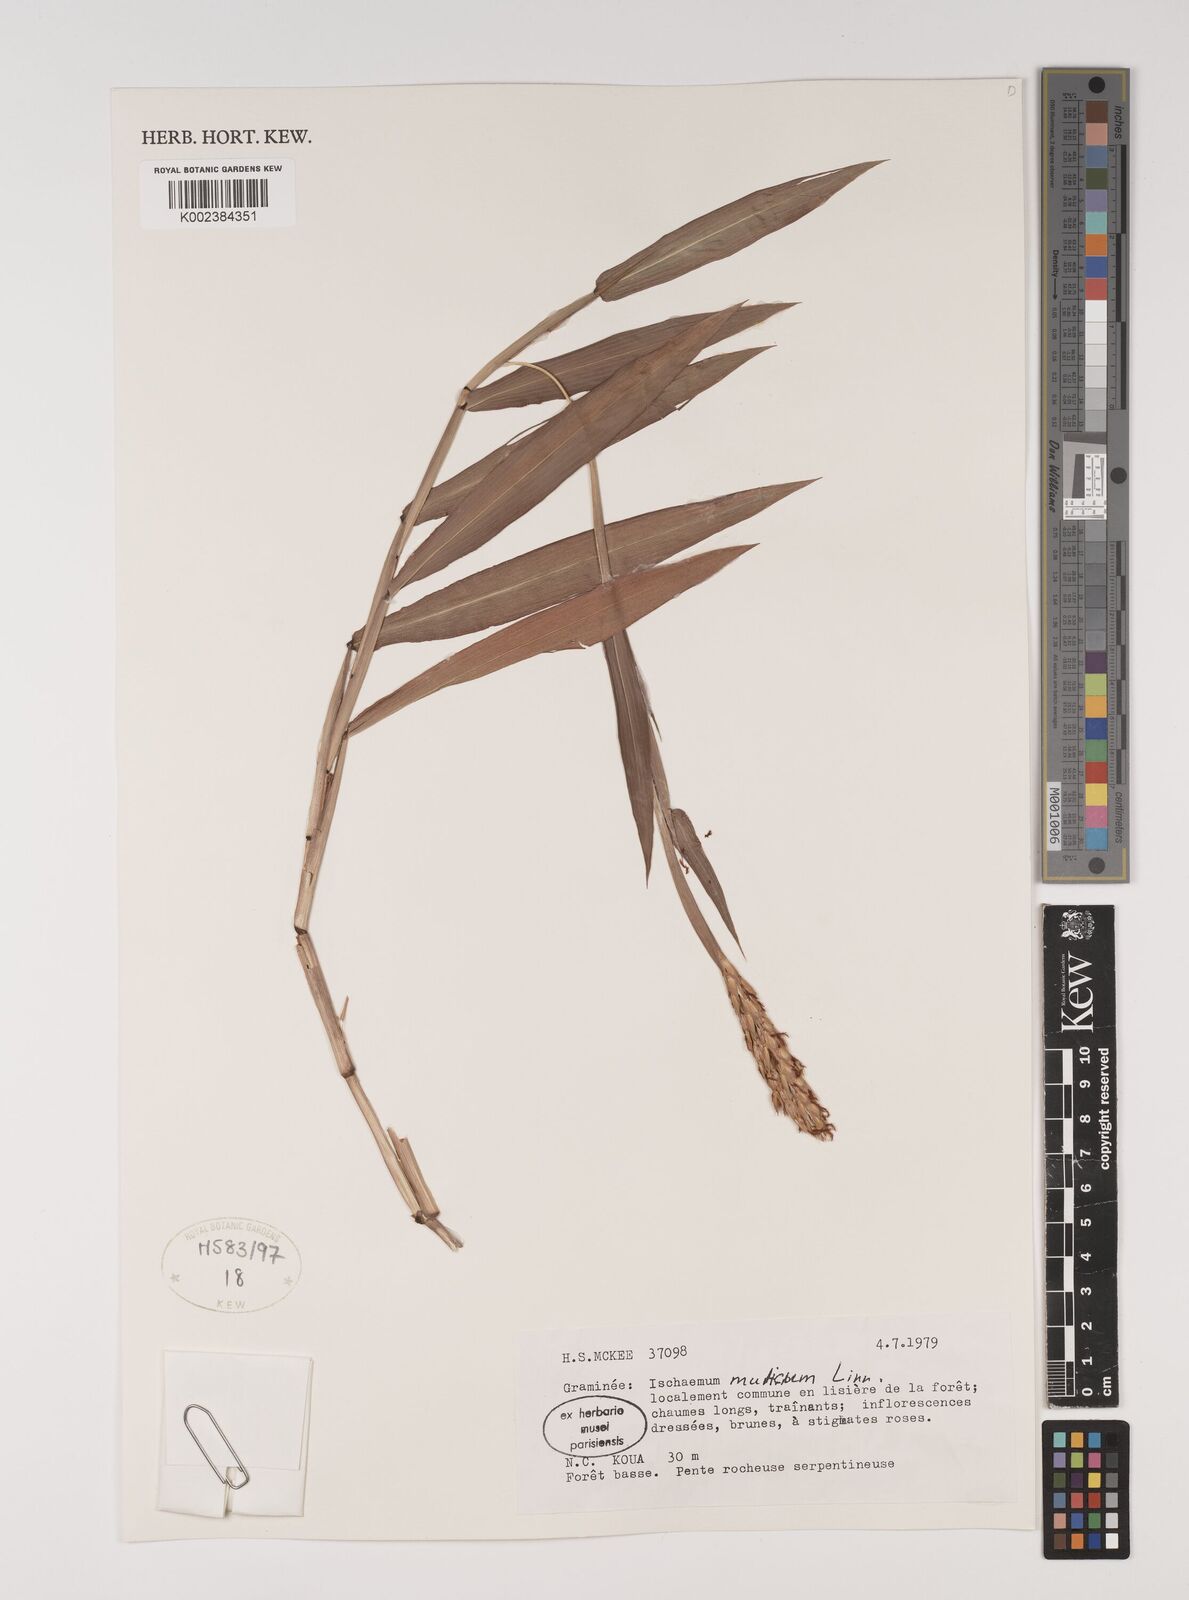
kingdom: Plantae
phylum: Tracheophyta
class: Liliopsida
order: Poales
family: Poaceae
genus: Ischaemum
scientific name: Ischaemum muticum
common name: Drought grass
